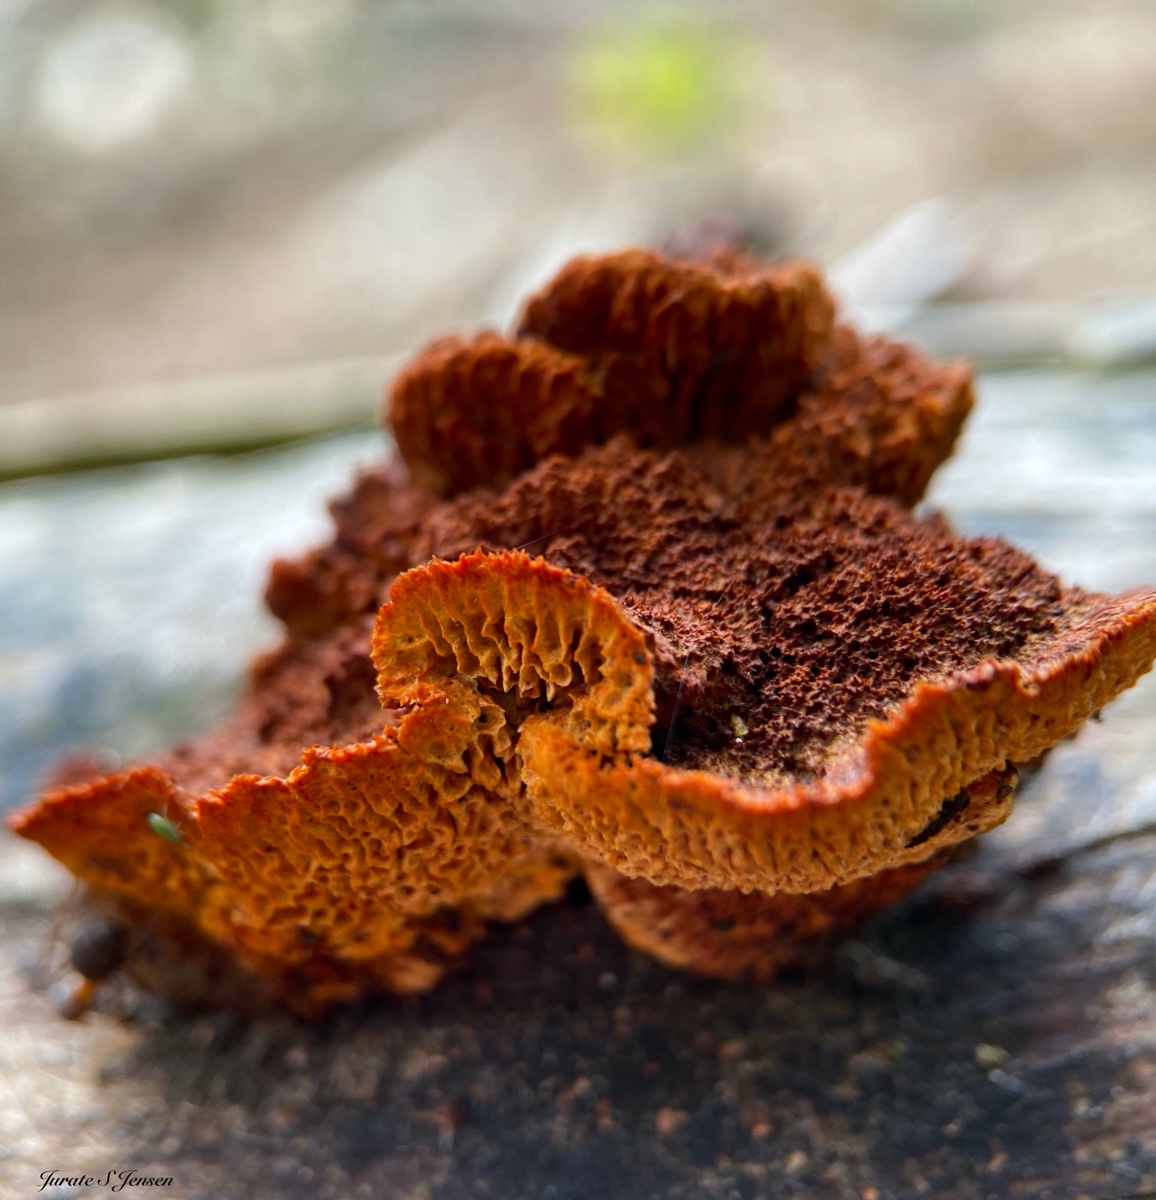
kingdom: Fungi
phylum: Basidiomycota
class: Agaricomycetes
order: Gloeophyllales
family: Gloeophyllaceae
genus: Gloeophyllum
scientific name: Gloeophyllum sepiarium
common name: fyrre-korkhat
